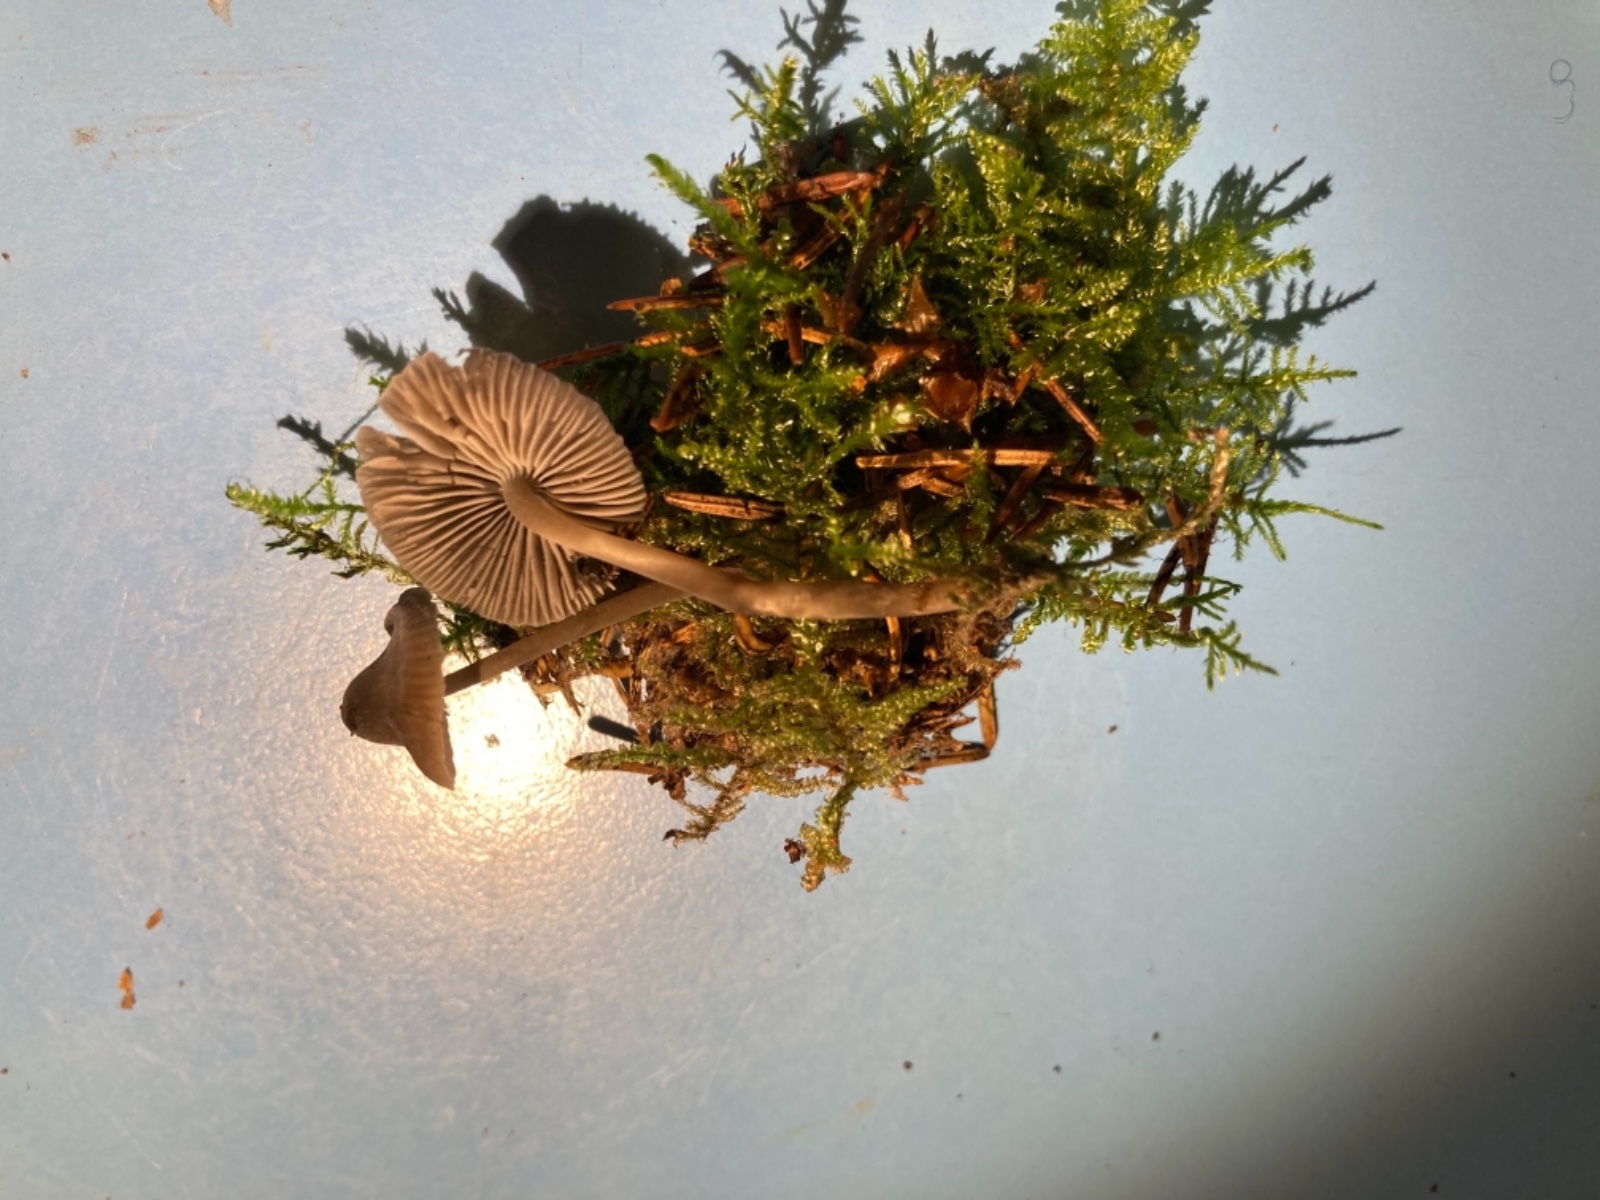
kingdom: Fungi
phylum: Basidiomycota
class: Agaricomycetes
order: Agaricales
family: Mycenaceae
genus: Mycena
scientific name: Mycena septentrionalis
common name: pelargonie-huesvamp
